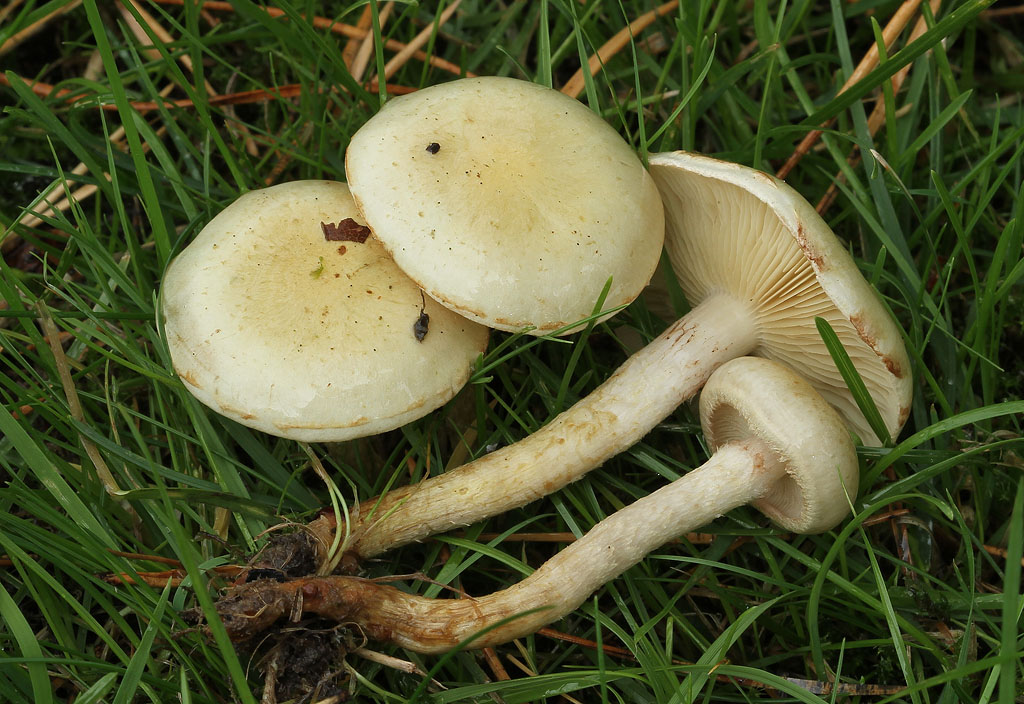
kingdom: Fungi
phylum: Basidiomycota
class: Agaricomycetes
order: Agaricales
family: Strophariaceae
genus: Pholiota
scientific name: Pholiota gummosa
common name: grøngul skælhat
